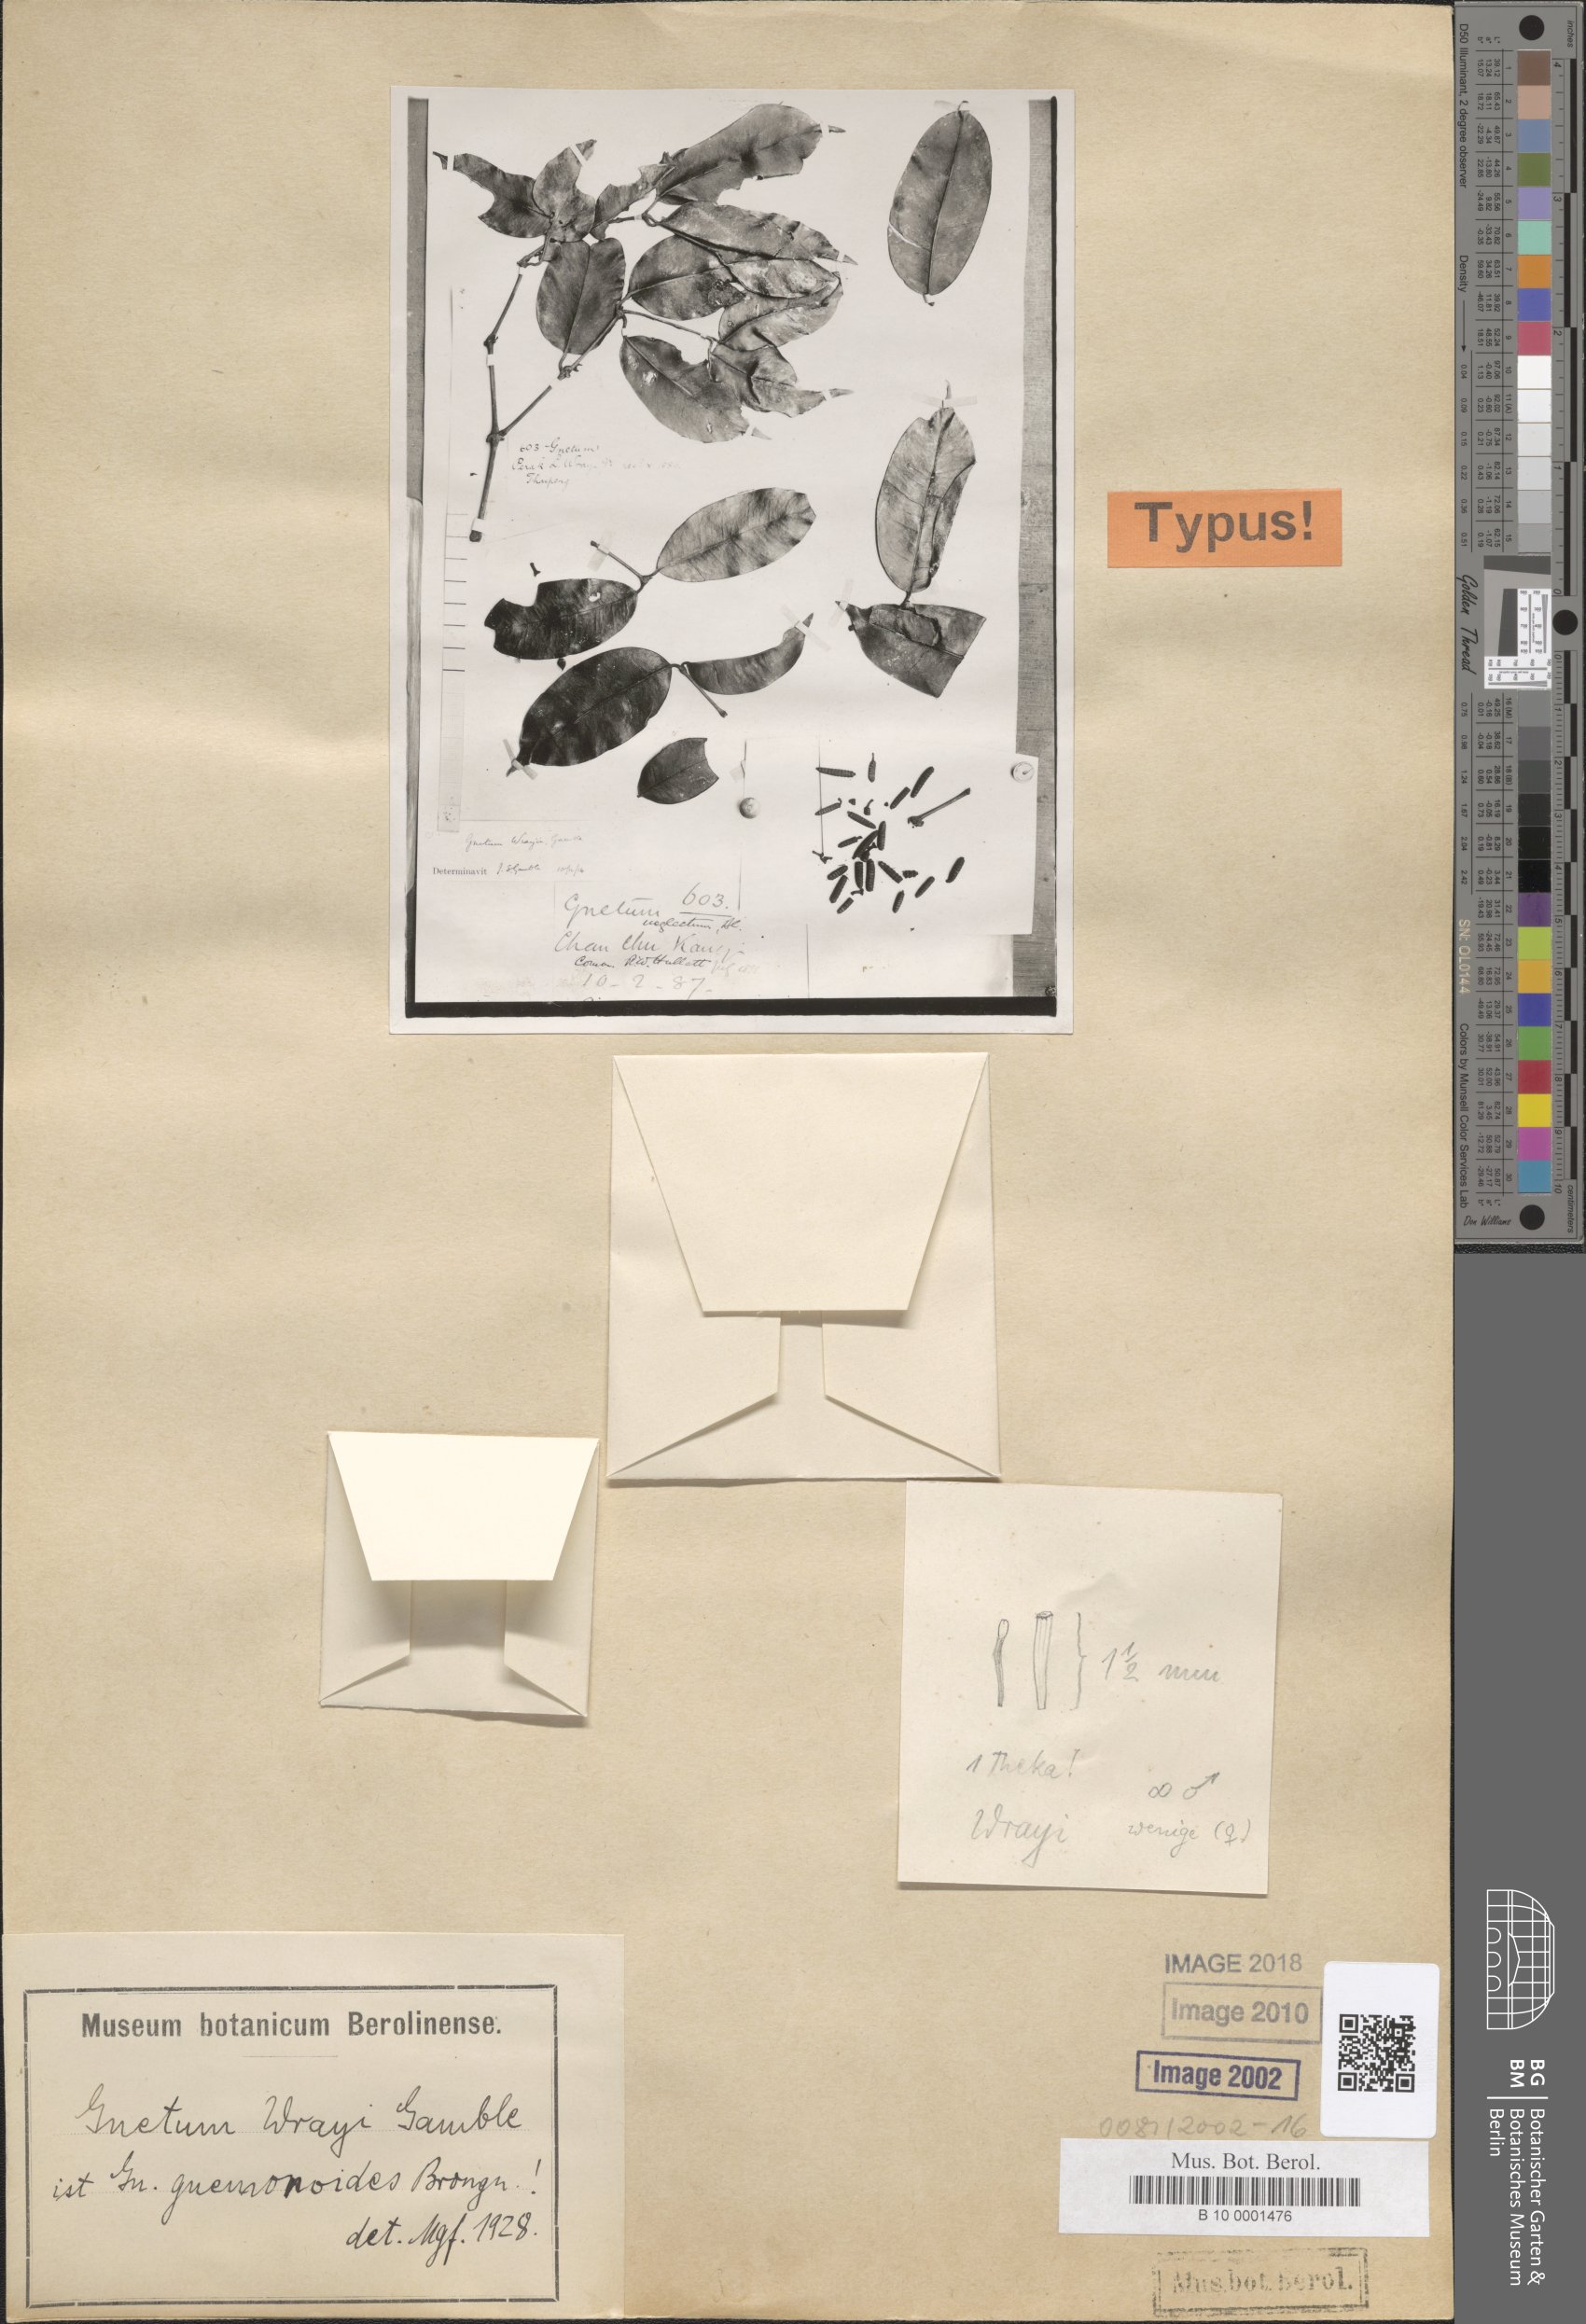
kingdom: Plantae
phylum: Tracheophyta
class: Gnetopsida
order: Gnetales
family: Gnetaceae
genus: Gnetum
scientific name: Gnetum gnemonoides
